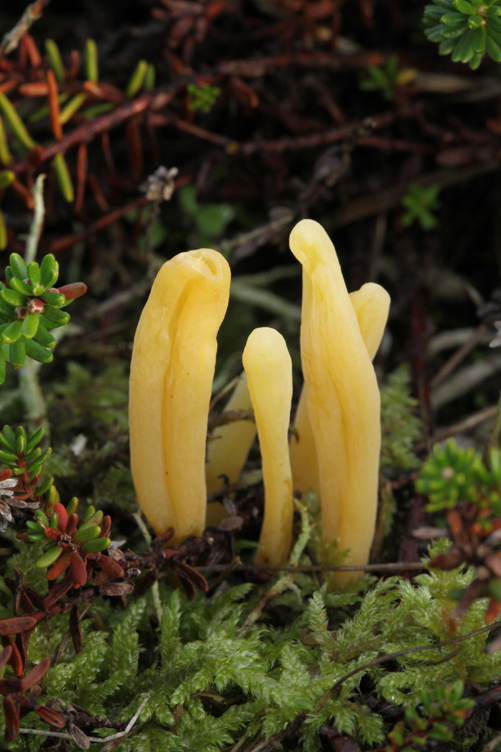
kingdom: Fungi
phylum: Basidiomycota
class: Agaricomycetes
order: Agaricales
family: Clavariaceae
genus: Clavaria
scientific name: Clavaria argillacea
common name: lerfarvet køllesvamp
